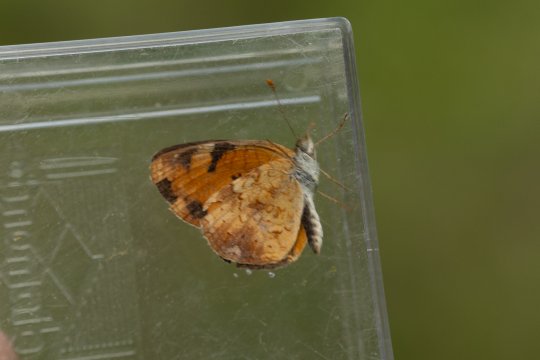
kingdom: Animalia
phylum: Arthropoda
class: Insecta
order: Lepidoptera
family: Nymphalidae
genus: Phyciodes
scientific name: Phyciodes
